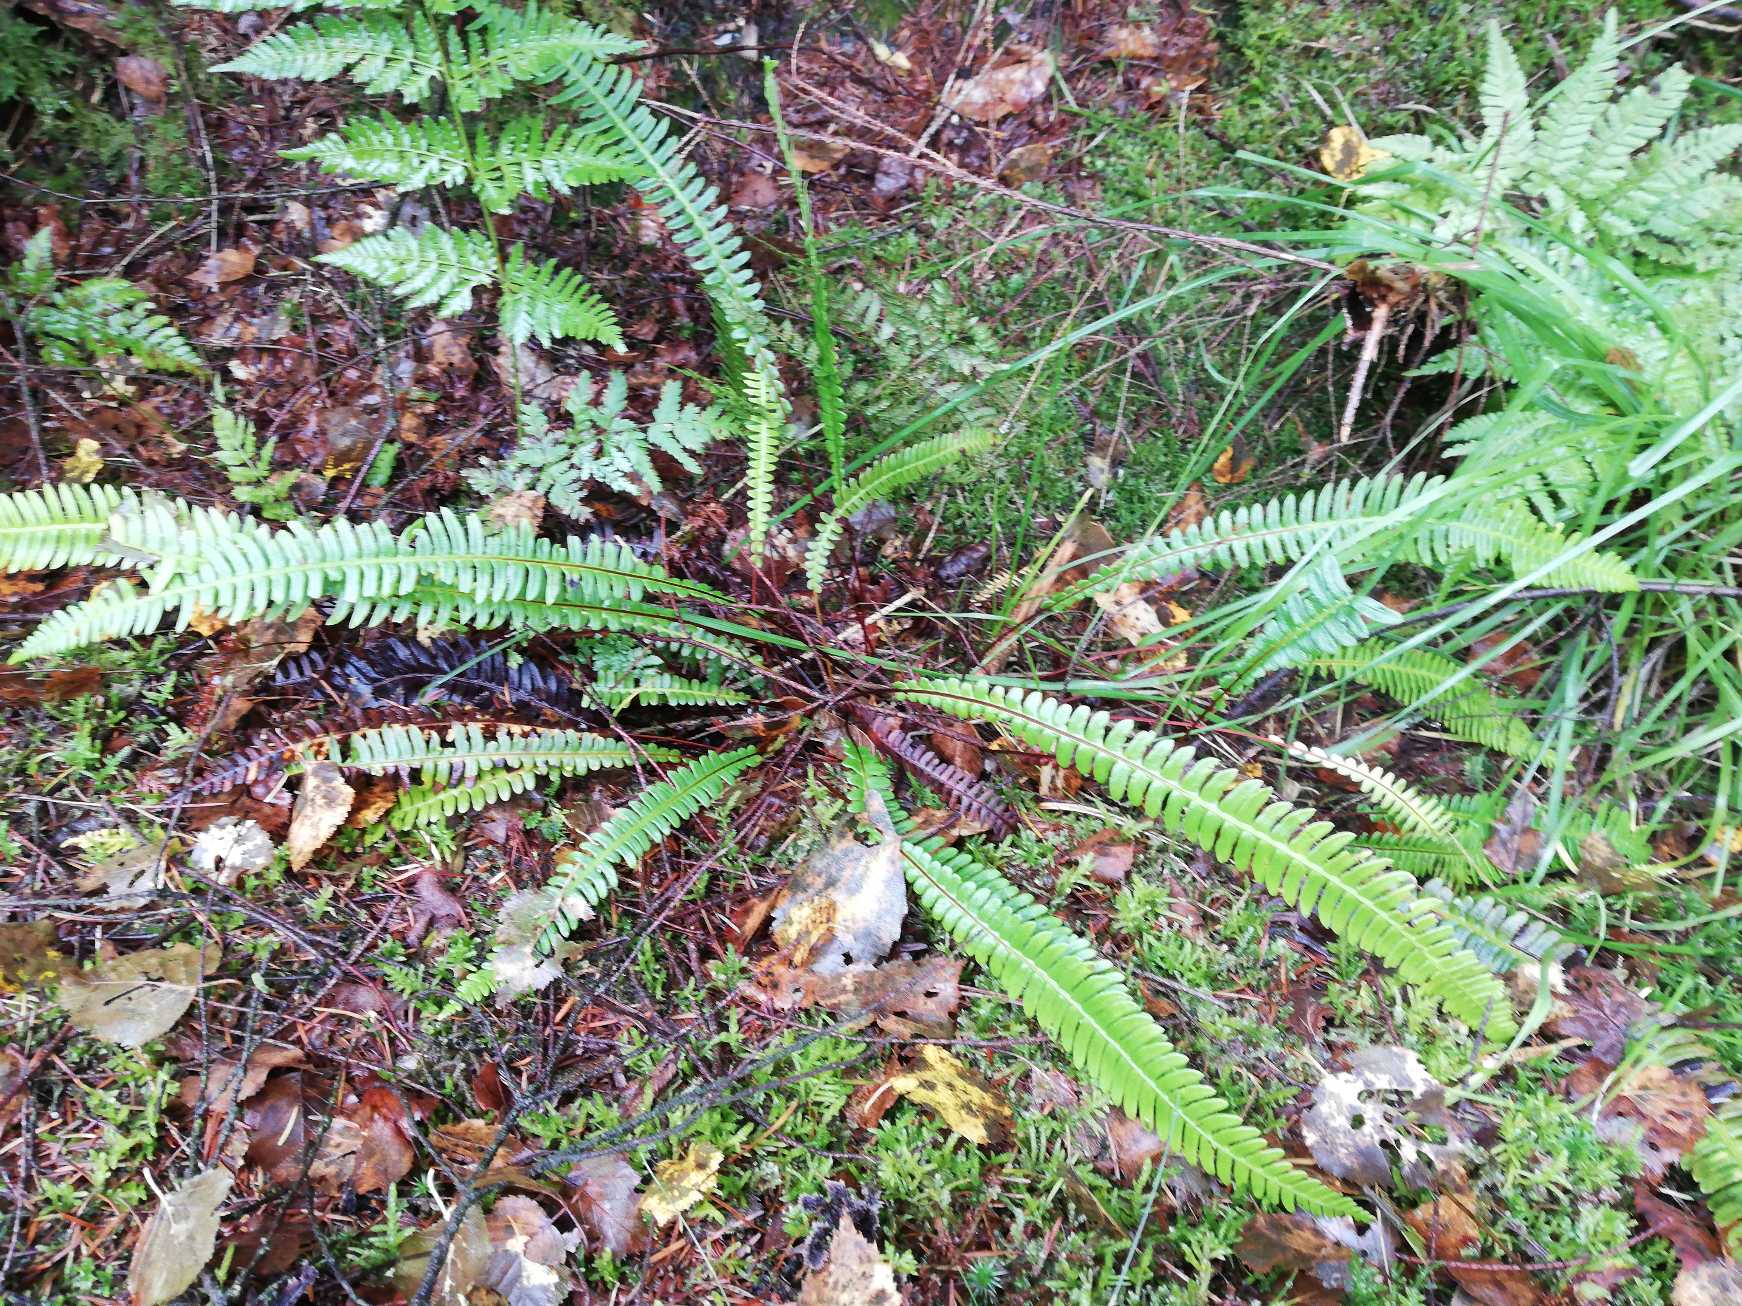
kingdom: Plantae
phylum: Tracheophyta
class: Polypodiopsida
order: Polypodiales
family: Blechnaceae
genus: Struthiopteris
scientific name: Struthiopteris spicant
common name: Kambregne
